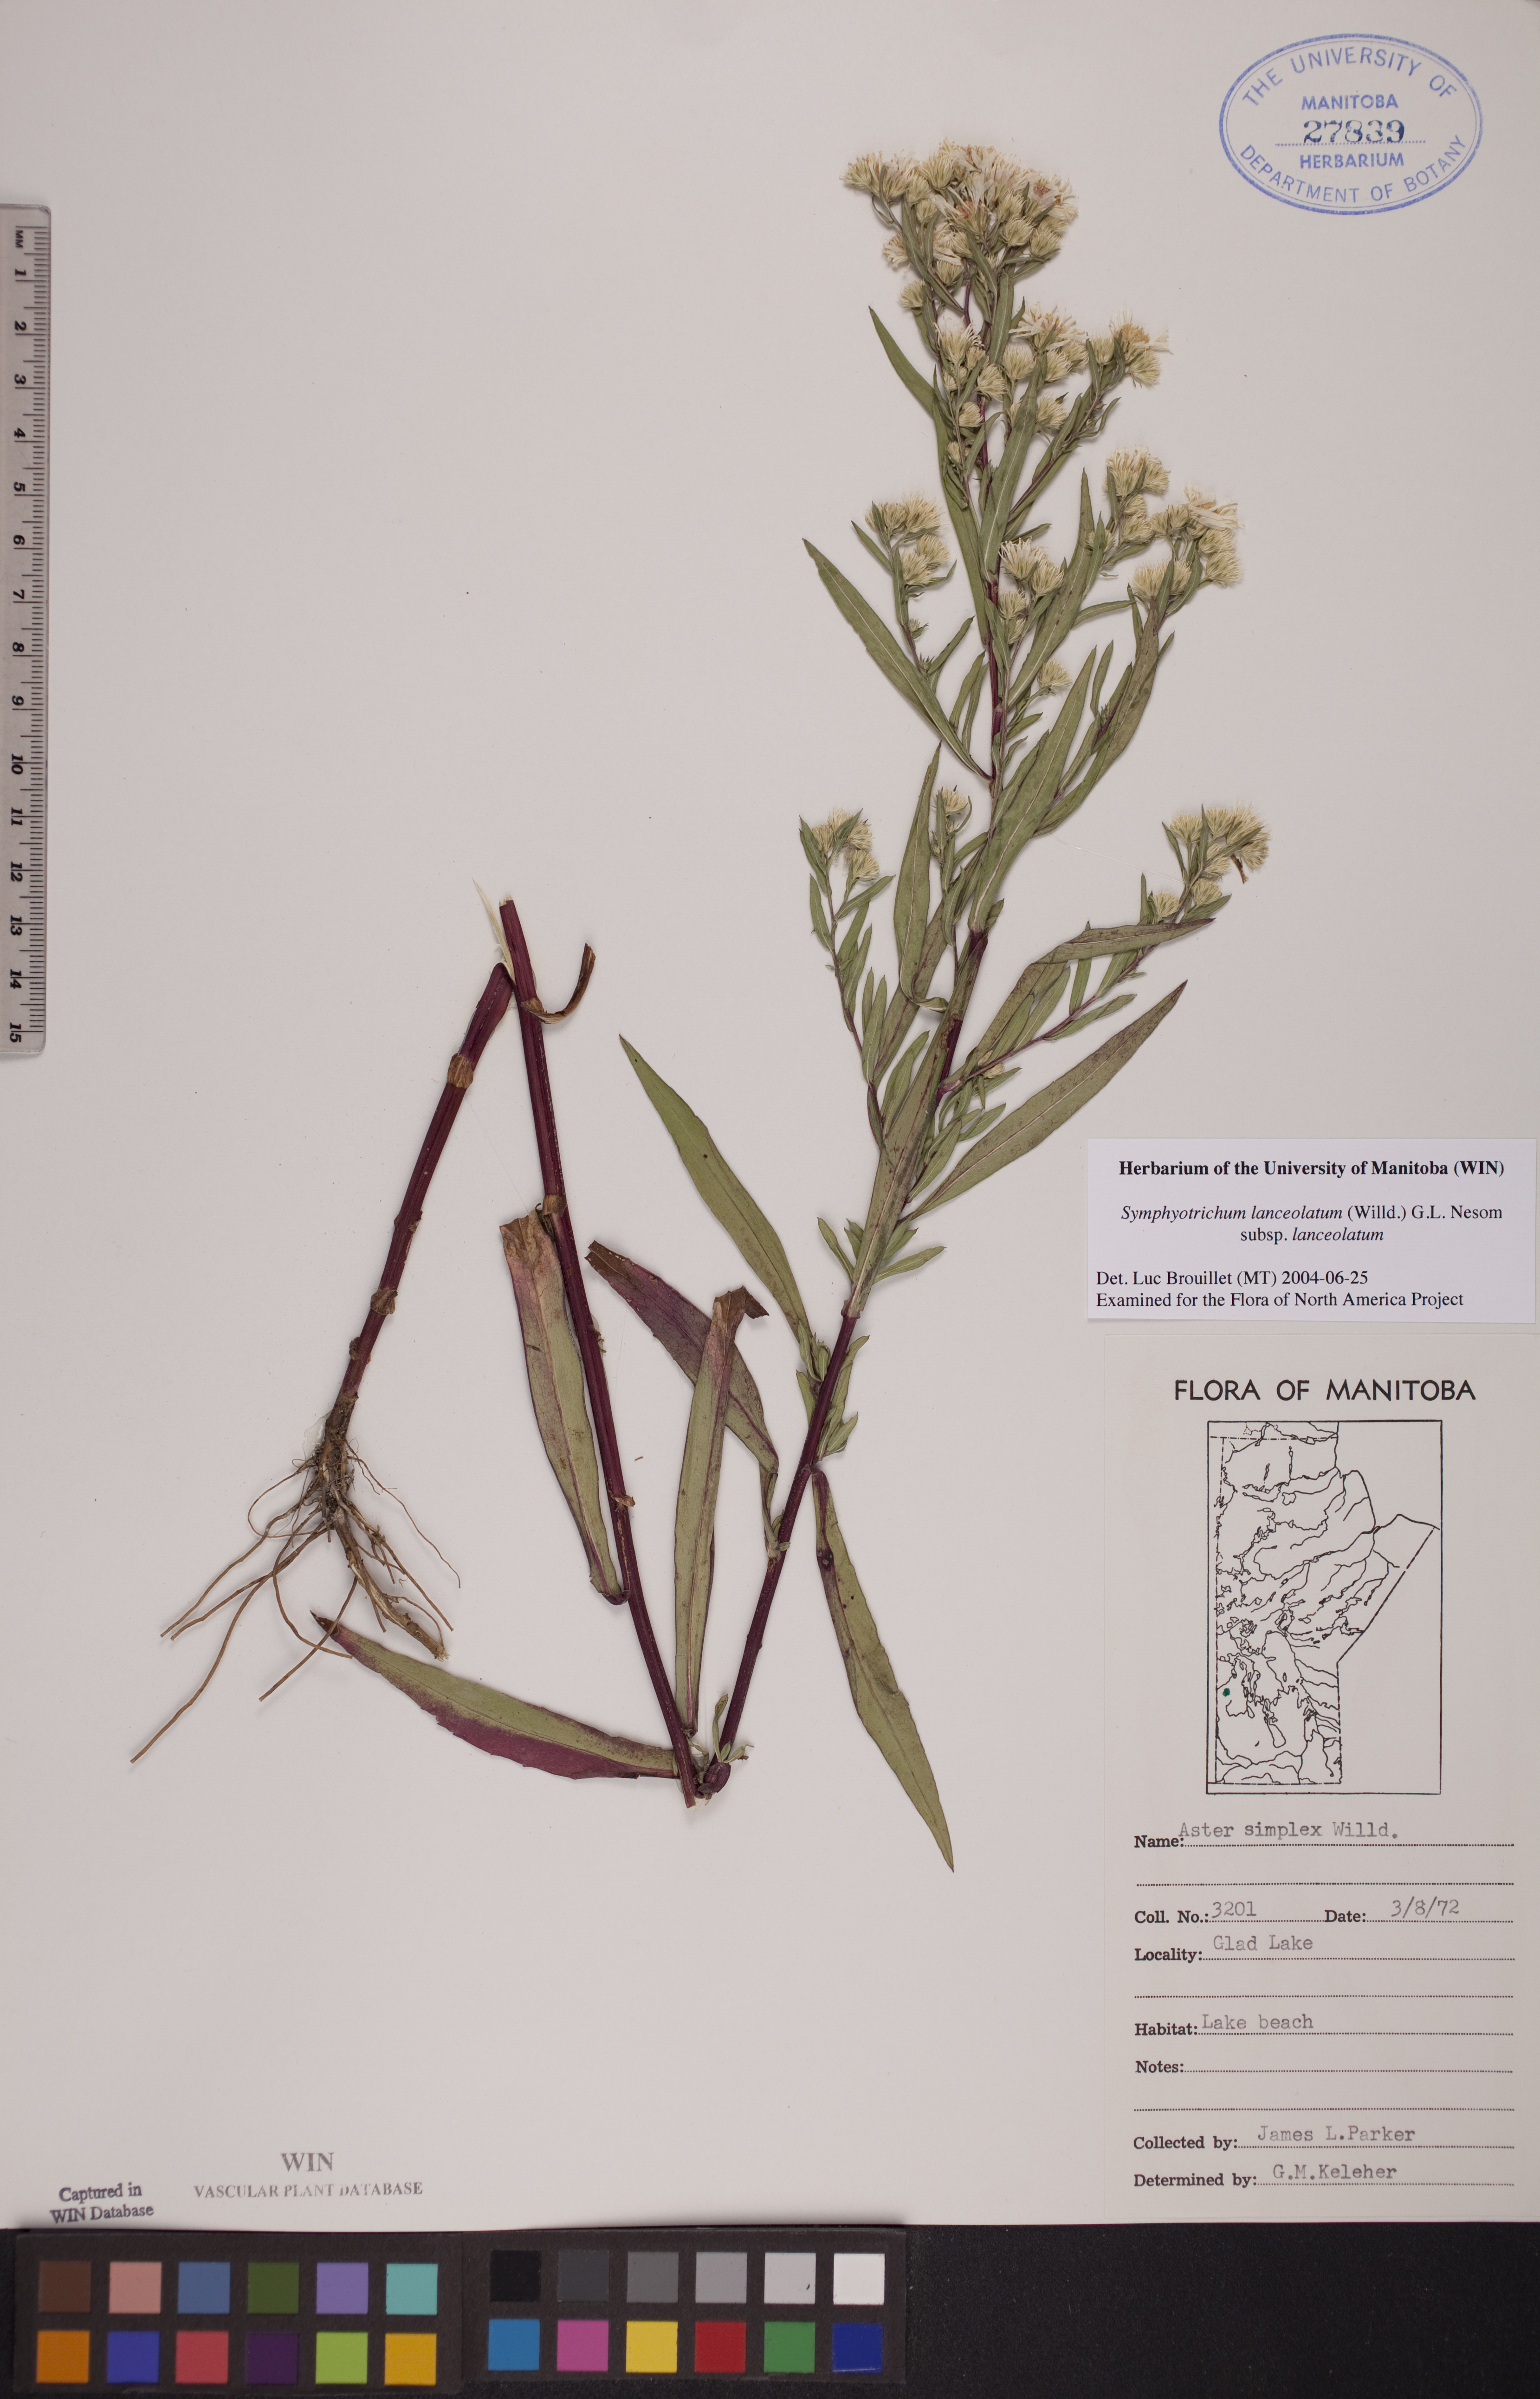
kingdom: Plantae
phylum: Tracheophyta
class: Magnoliopsida
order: Asterales
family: Asteraceae
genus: Symphyotrichum
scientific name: Symphyotrichum lanceolatum
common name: Panicled aster
